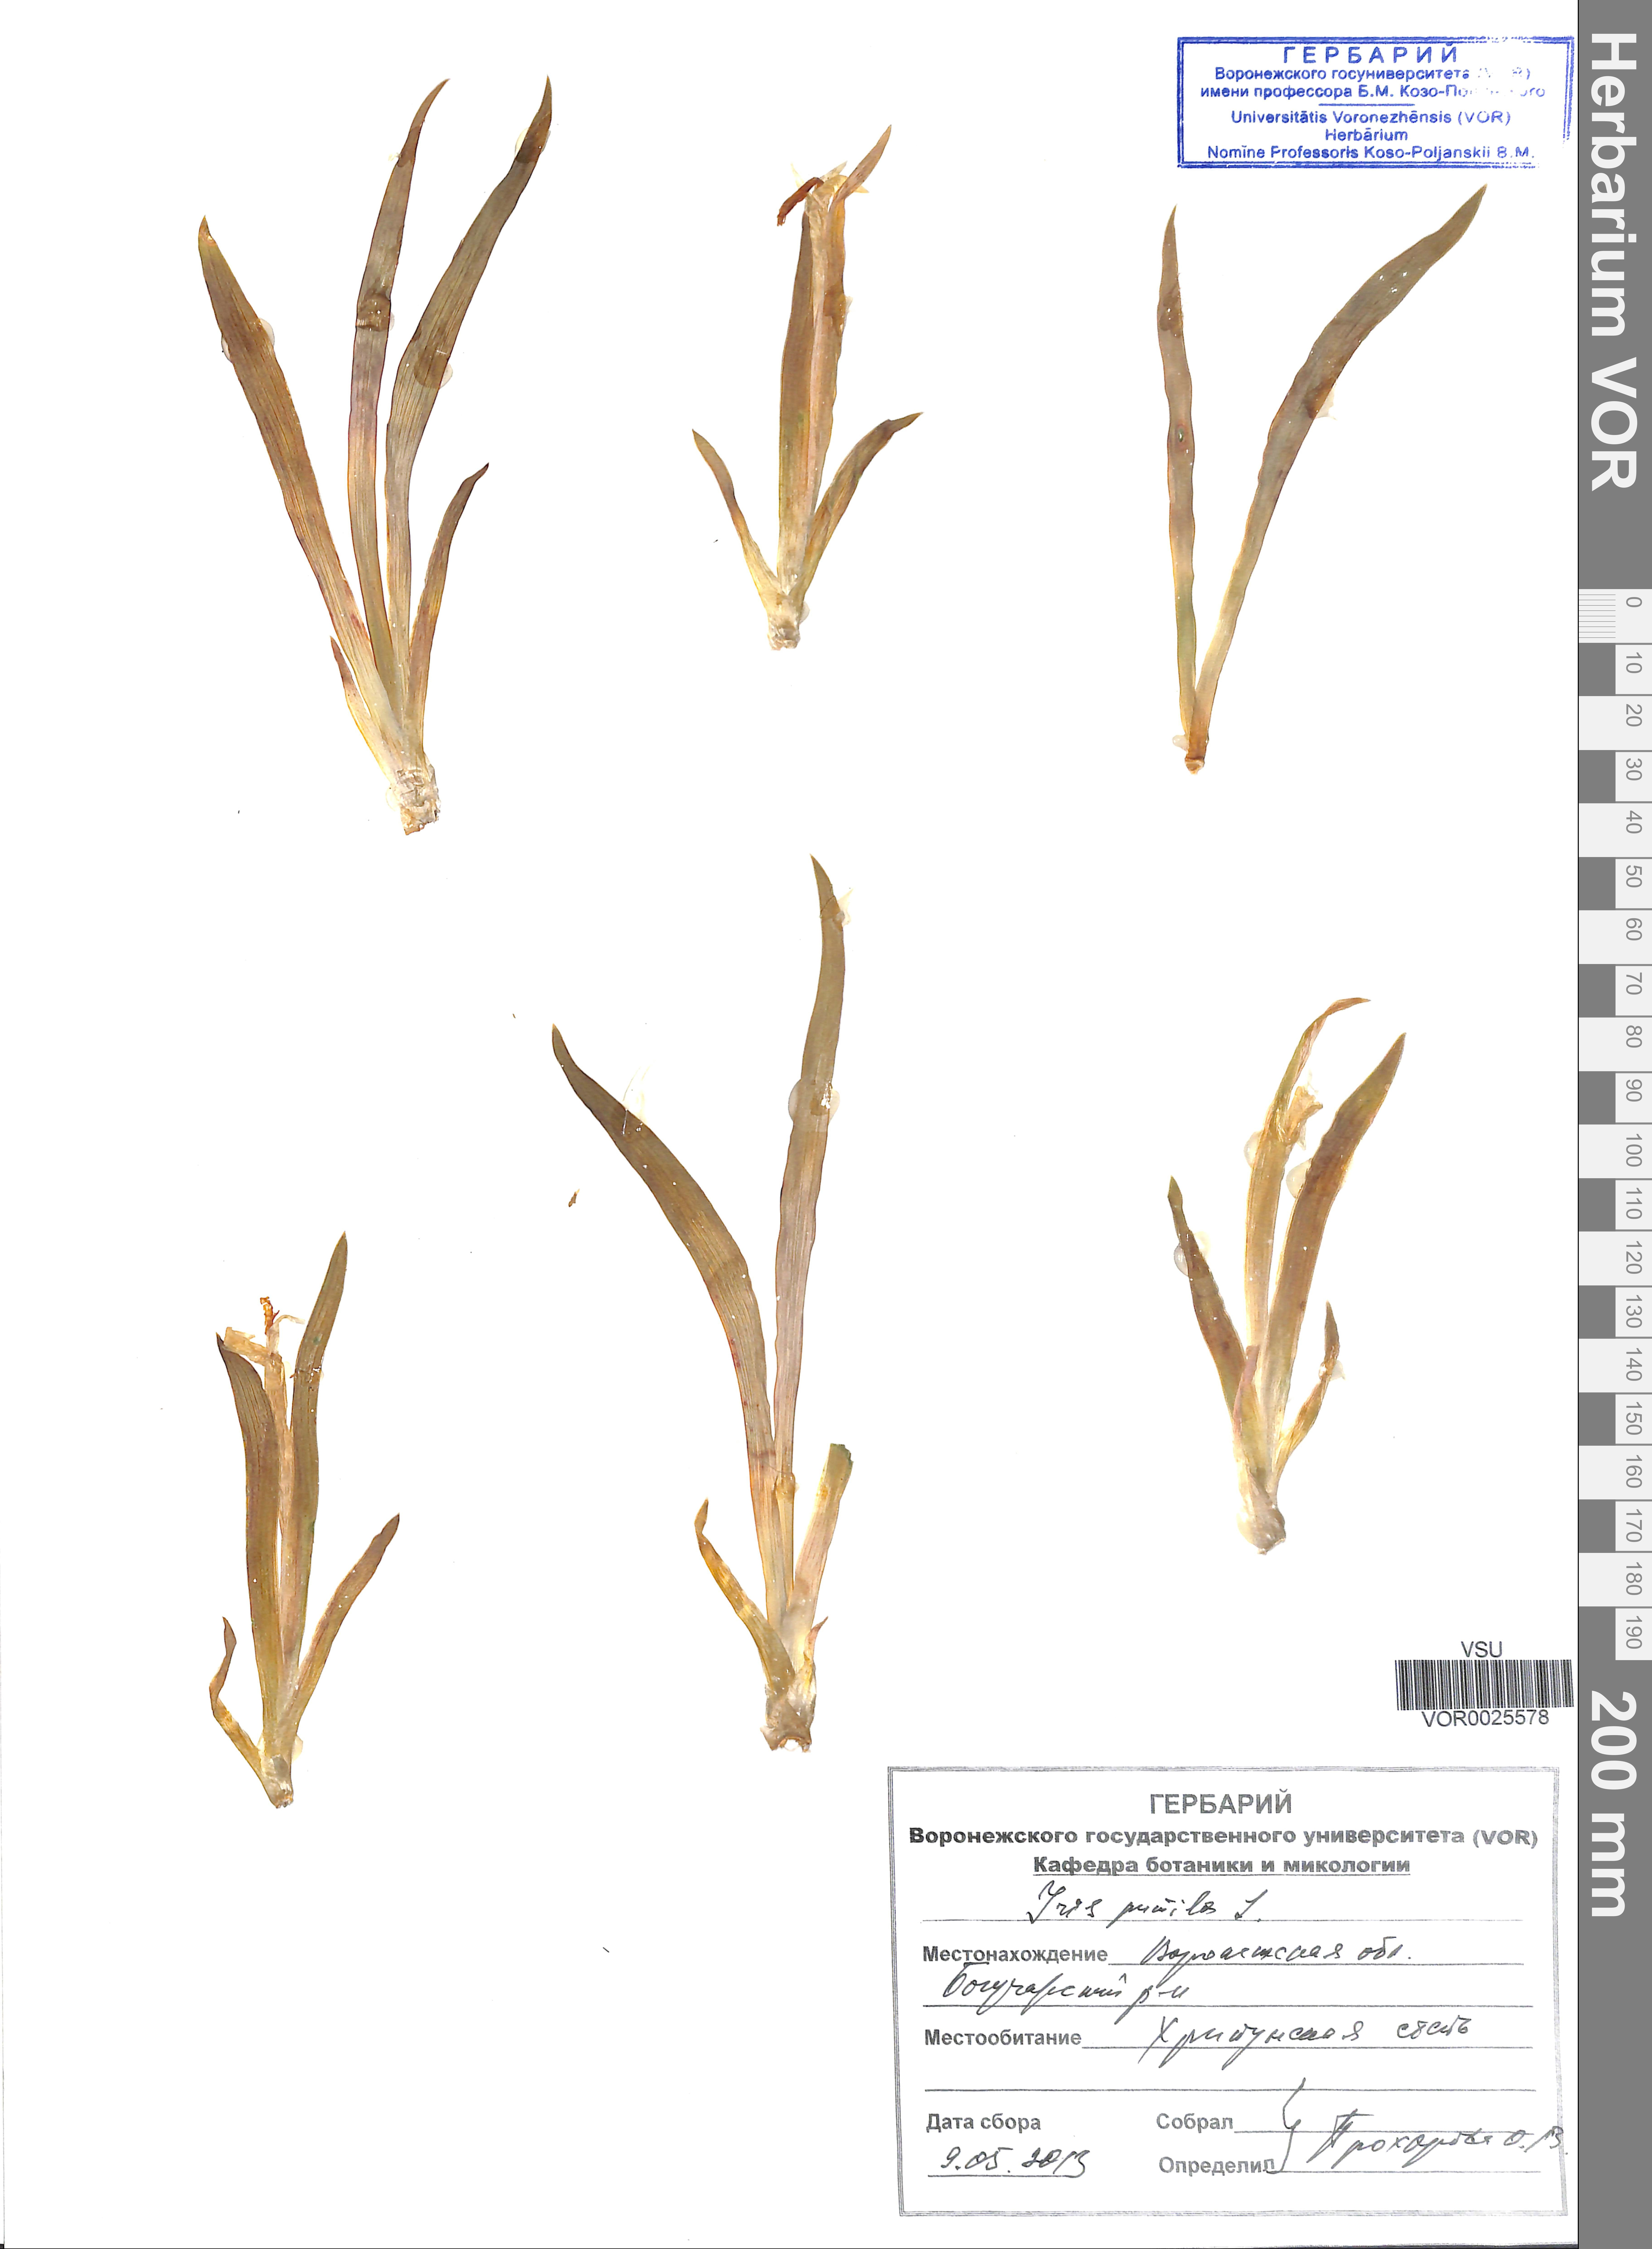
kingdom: Plantae
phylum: Tracheophyta
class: Liliopsida
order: Asparagales
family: Iridaceae
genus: Iris
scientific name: Iris pumila
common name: Dwarf iris
